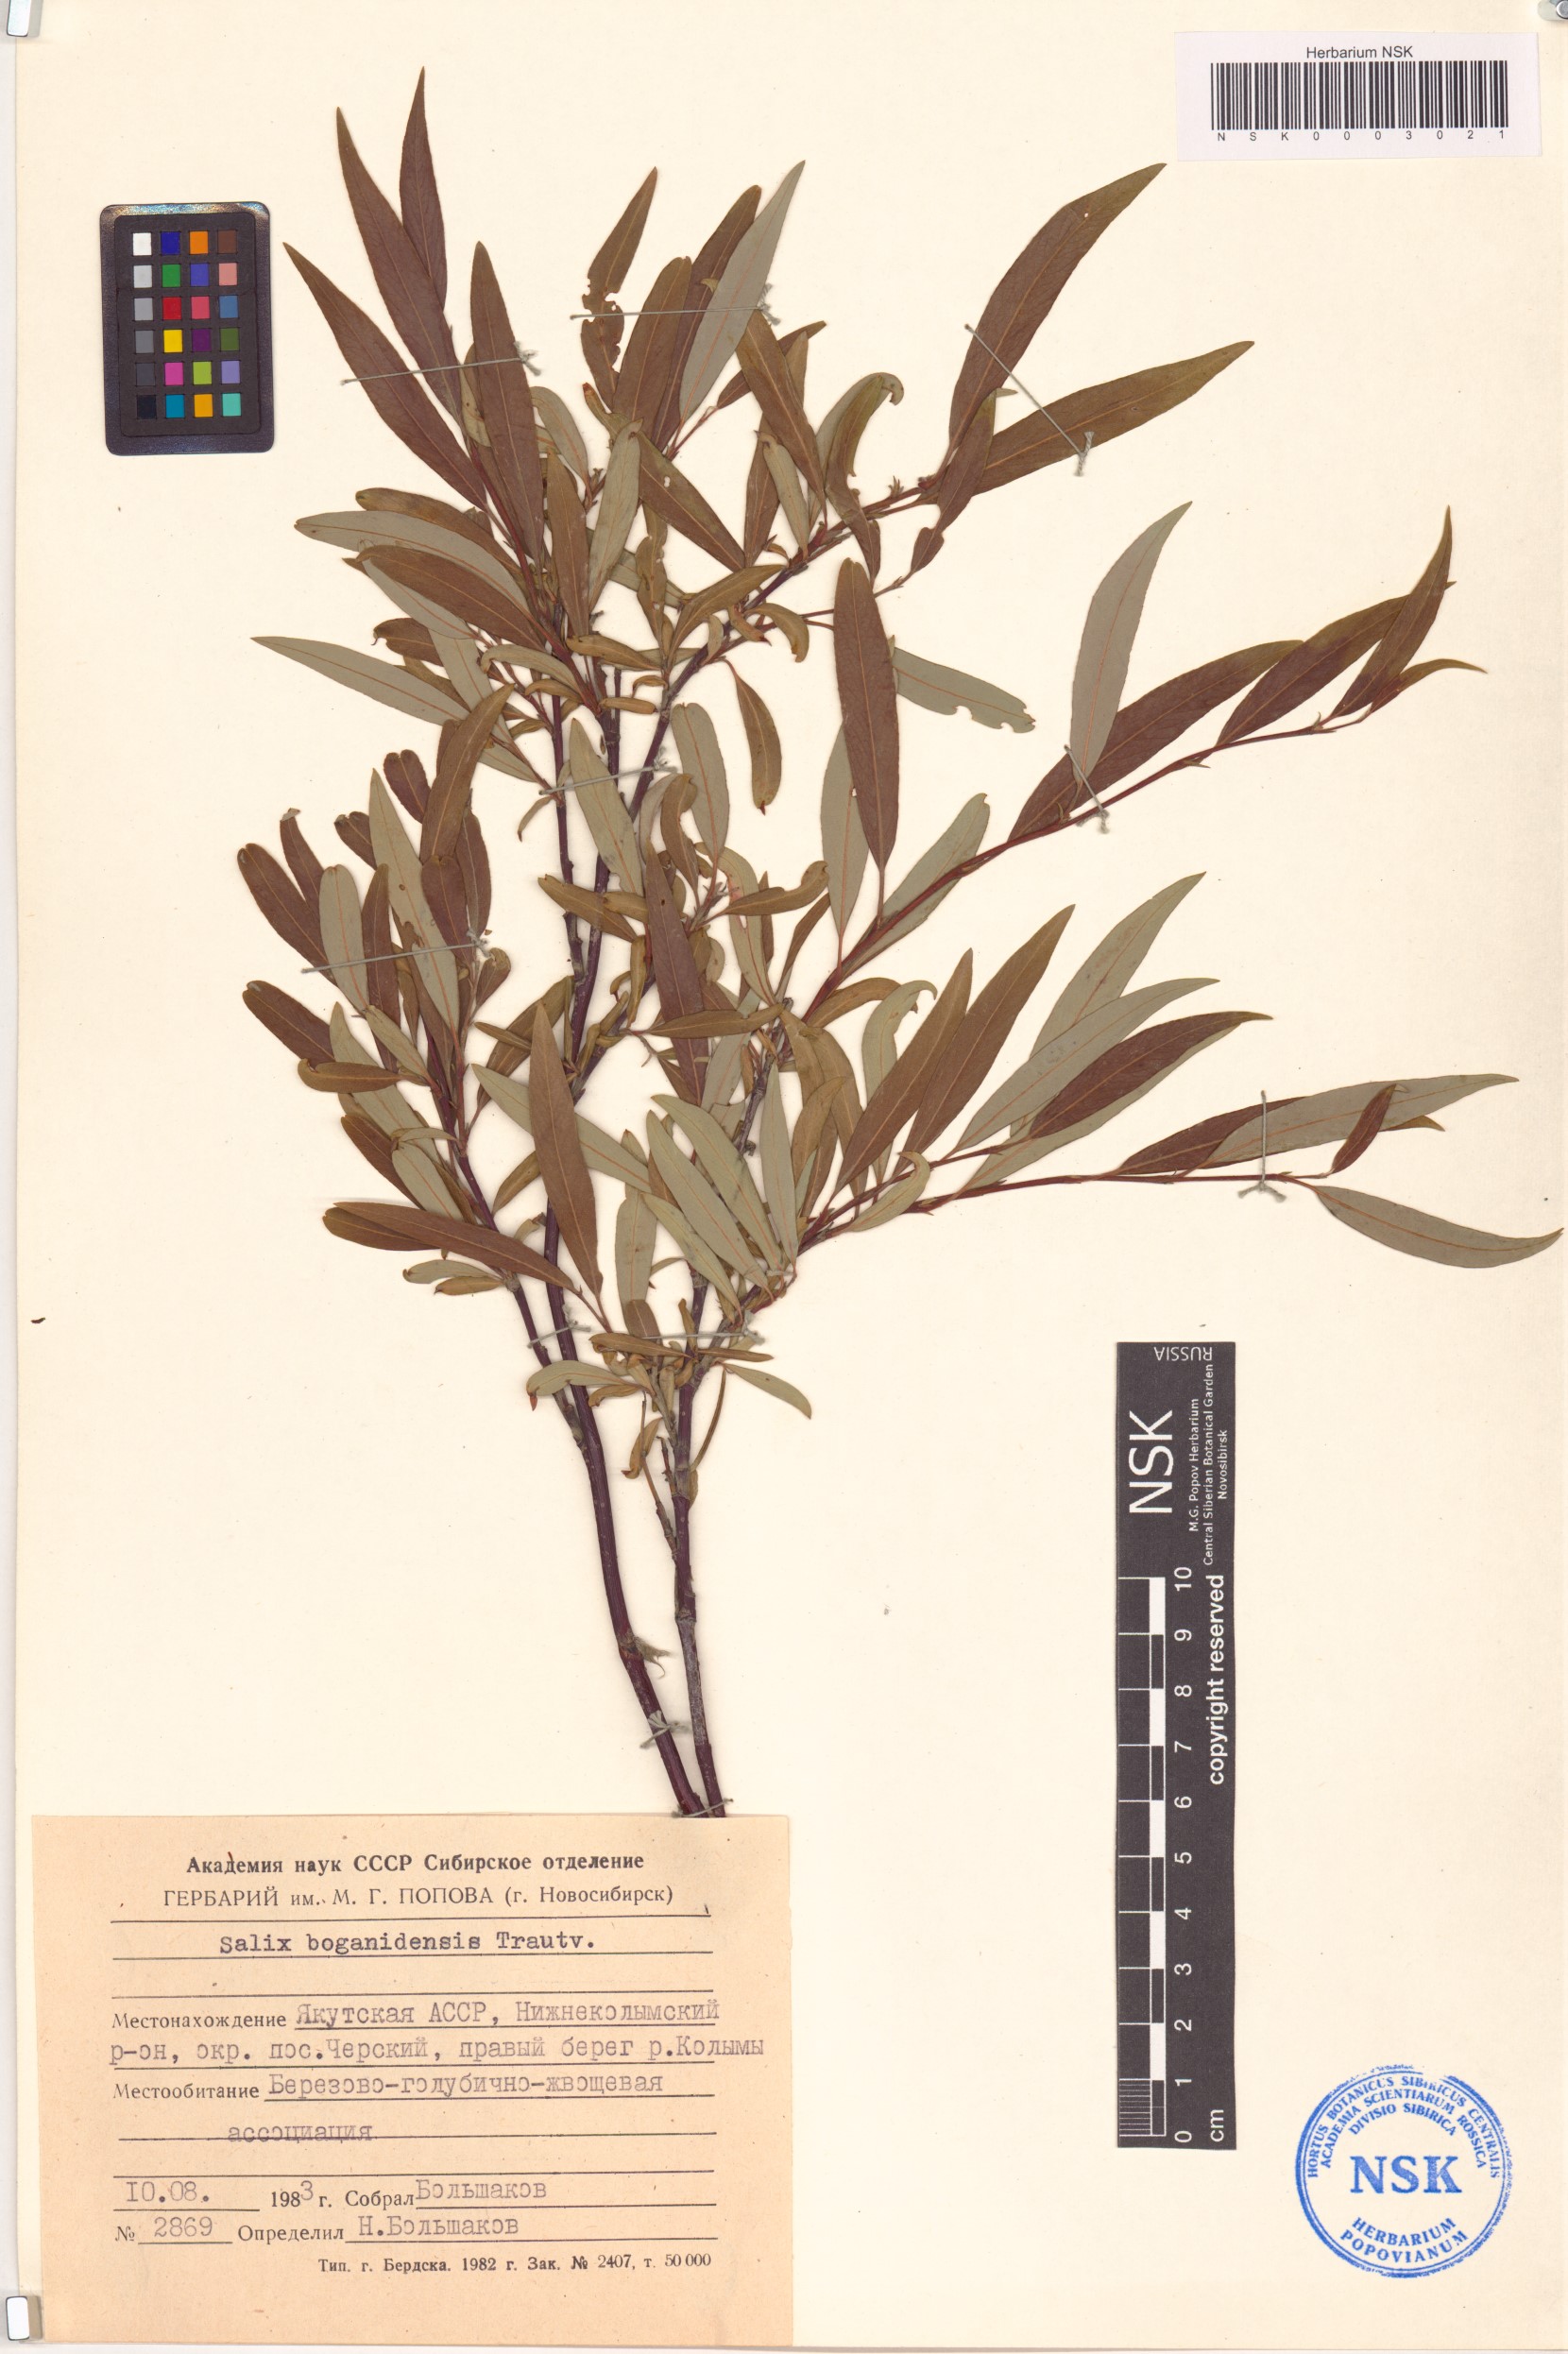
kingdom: Plantae
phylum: Tracheophyta
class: Magnoliopsida
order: Malpighiales
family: Salicaceae
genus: Salix
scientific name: Salix boganidensis
